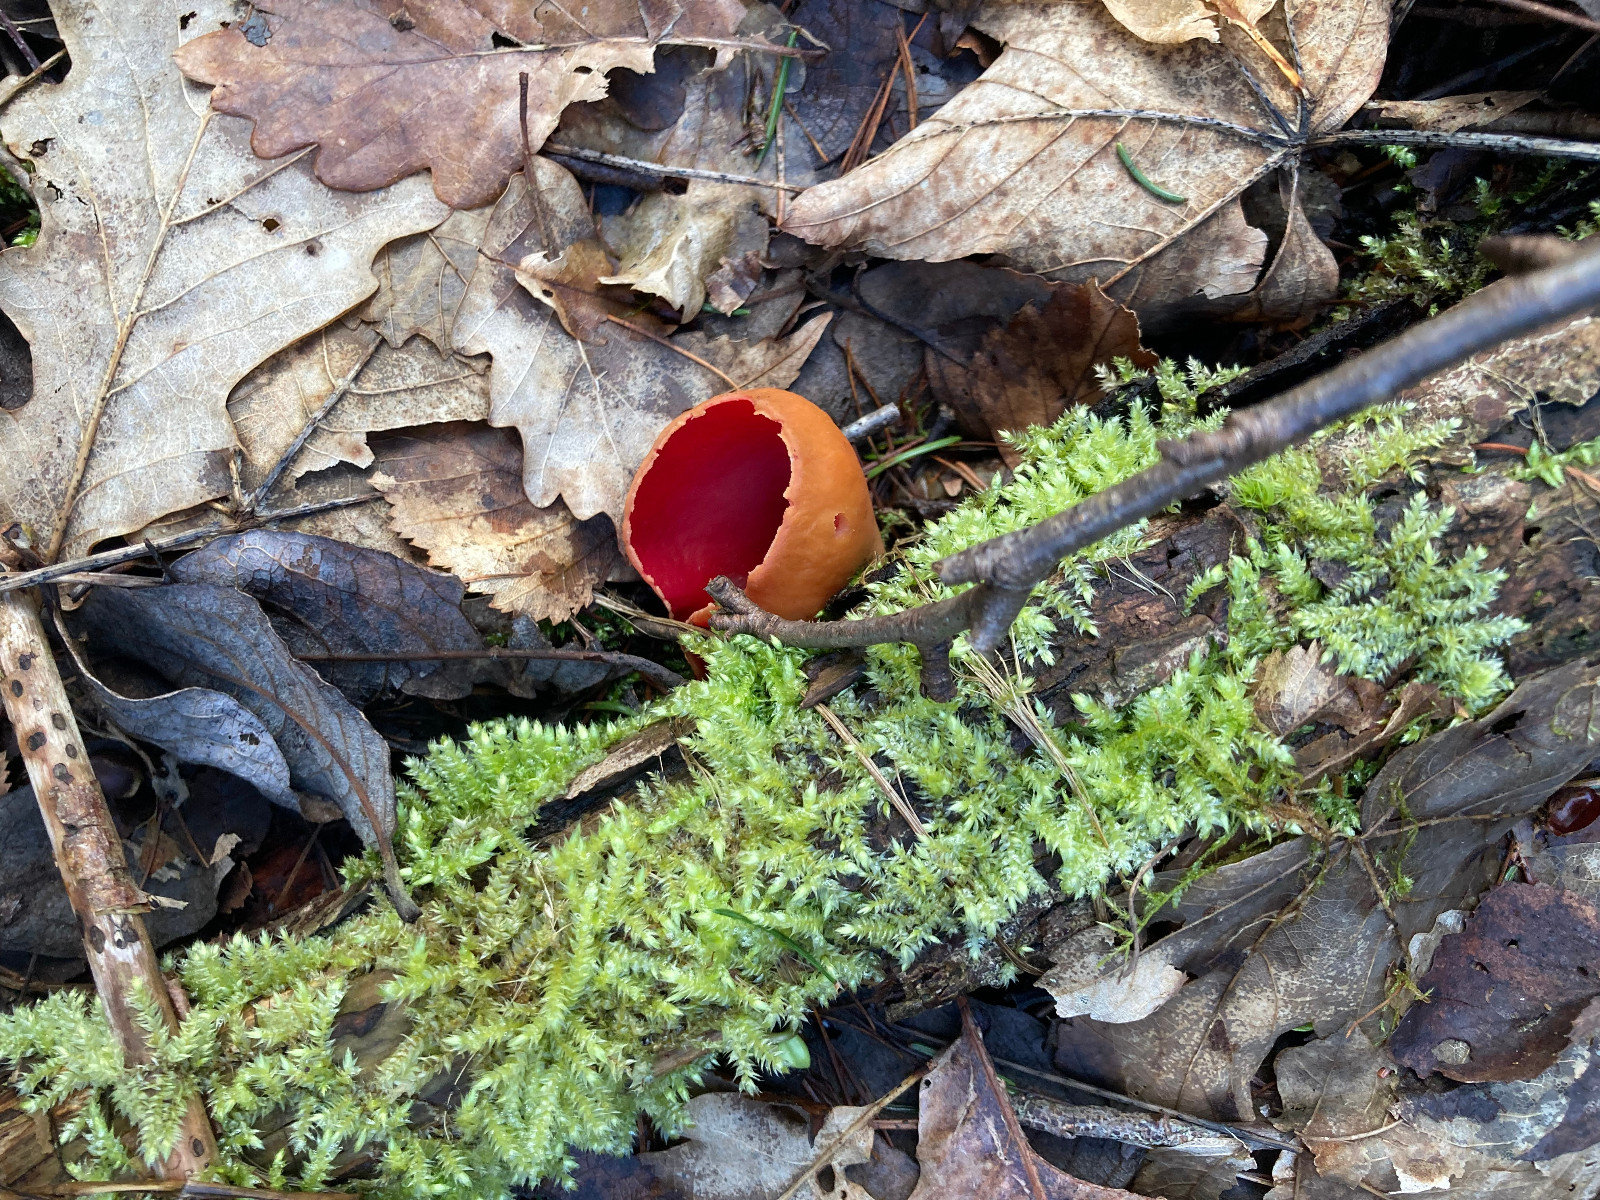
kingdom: Fungi
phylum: Ascomycota
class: Pezizomycetes
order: Pezizales
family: Sarcoscyphaceae
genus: Sarcoscypha
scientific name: Sarcoscypha austriaca
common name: krølhåret pragtbæger
